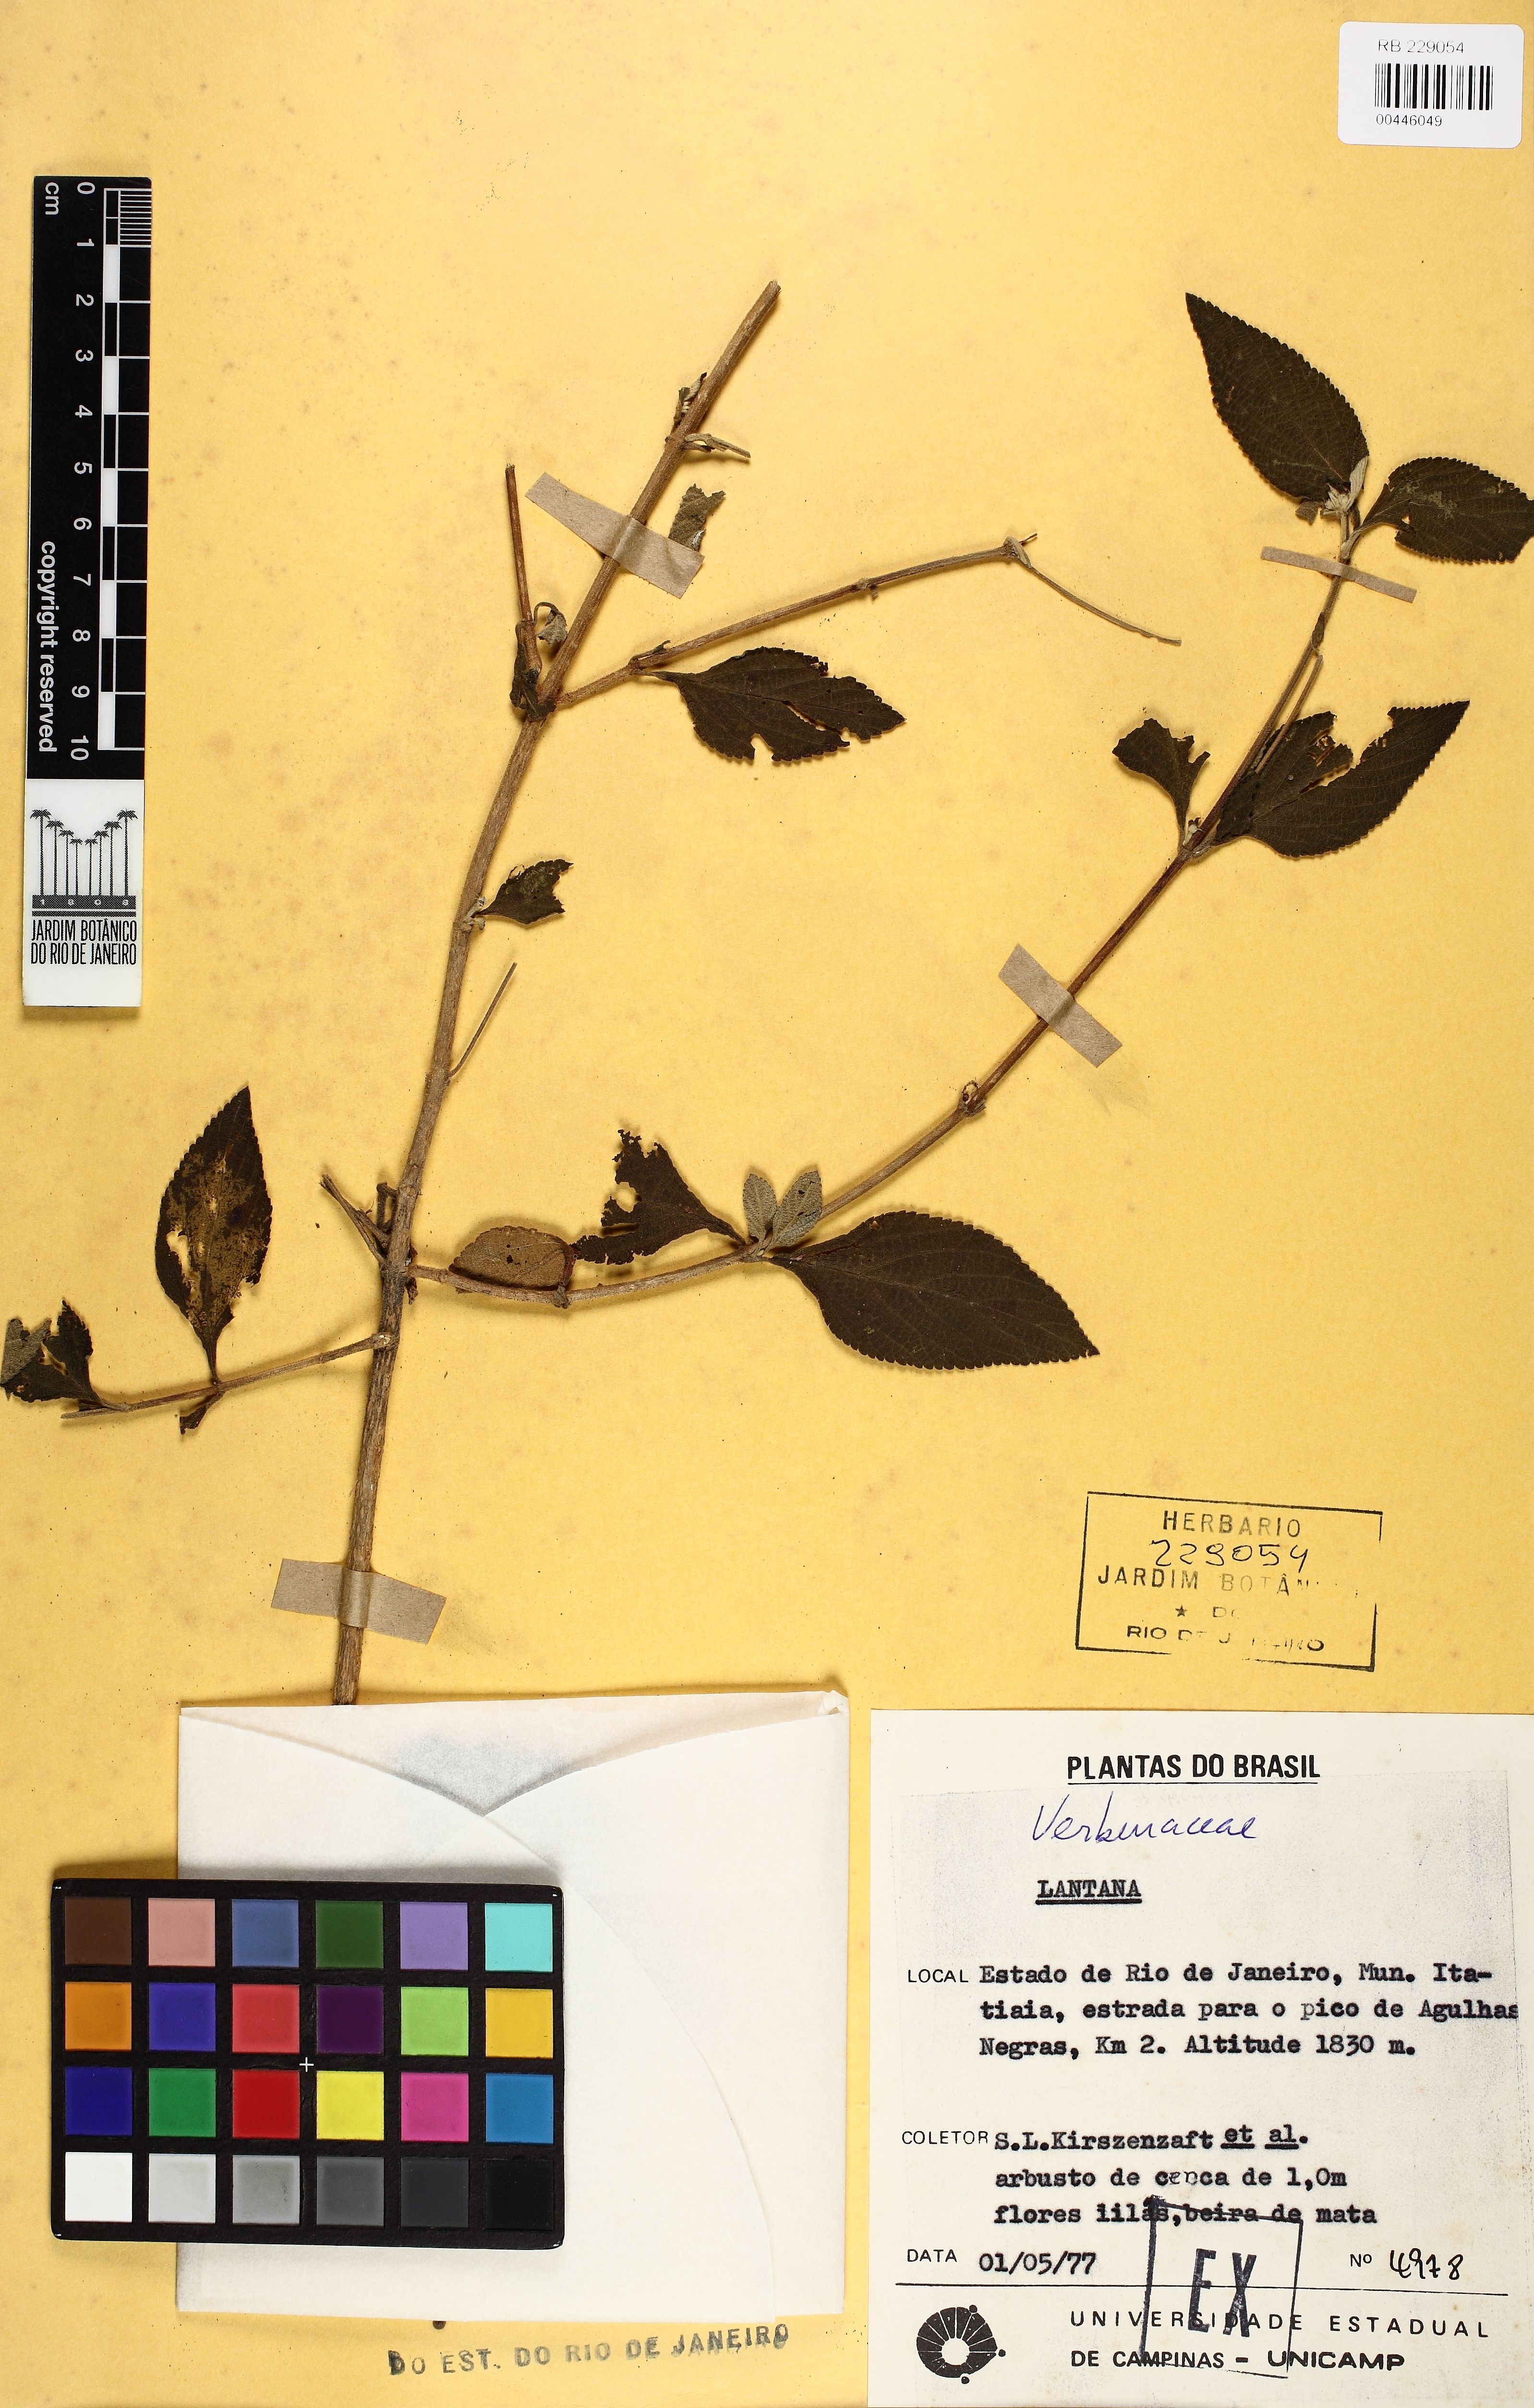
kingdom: Plantae
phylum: Tracheophyta
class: Magnoliopsida
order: Lamiales
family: Verbenaceae
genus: Lantana
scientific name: Lantana fucata
